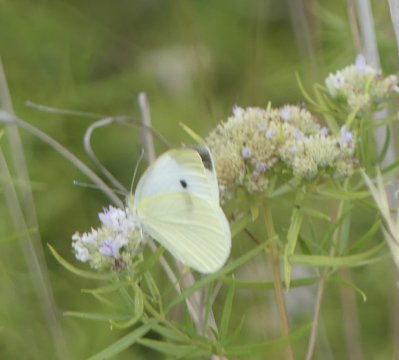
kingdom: Animalia
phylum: Arthropoda
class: Insecta
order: Lepidoptera
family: Pieridae
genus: Pieris
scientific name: Pieris rapae
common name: Cabbage White
